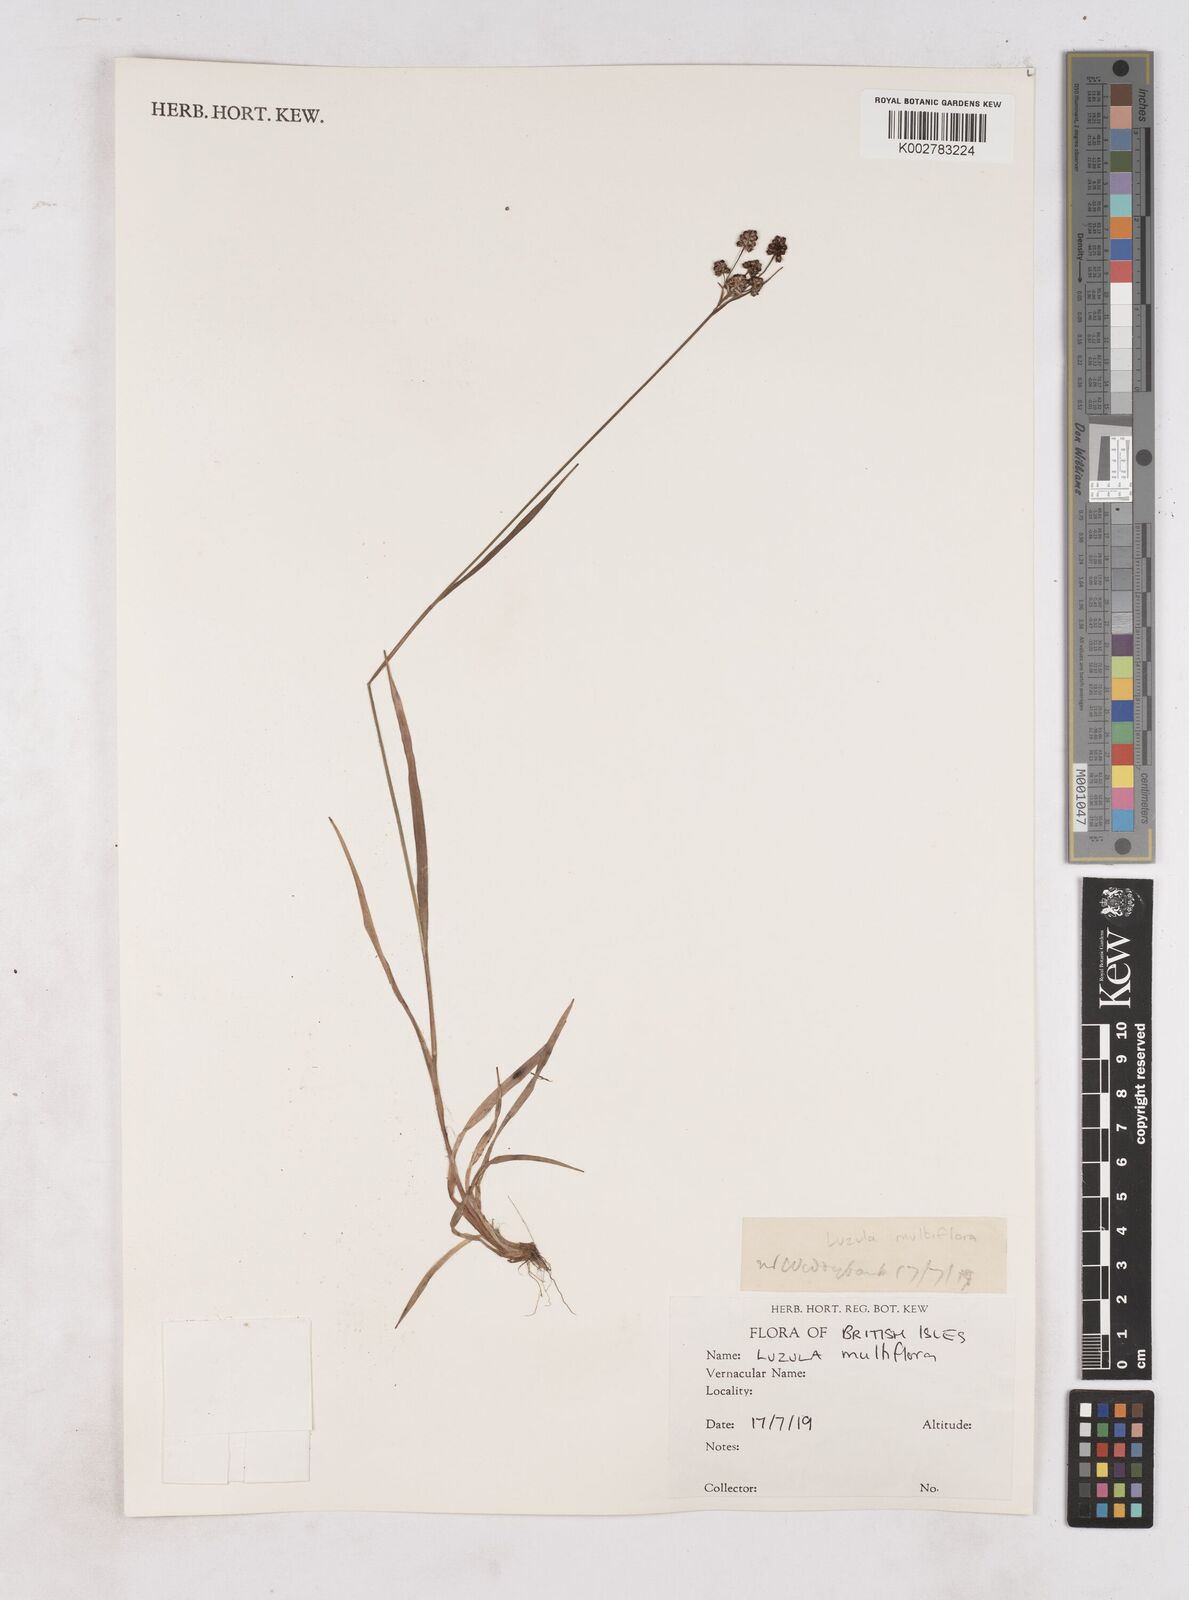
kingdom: Plantae
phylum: Tracheophyta
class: Liliopsida
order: Poales
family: Juncaceae
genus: Luzula
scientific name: Luzula multiflora
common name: Heath wood-rush
